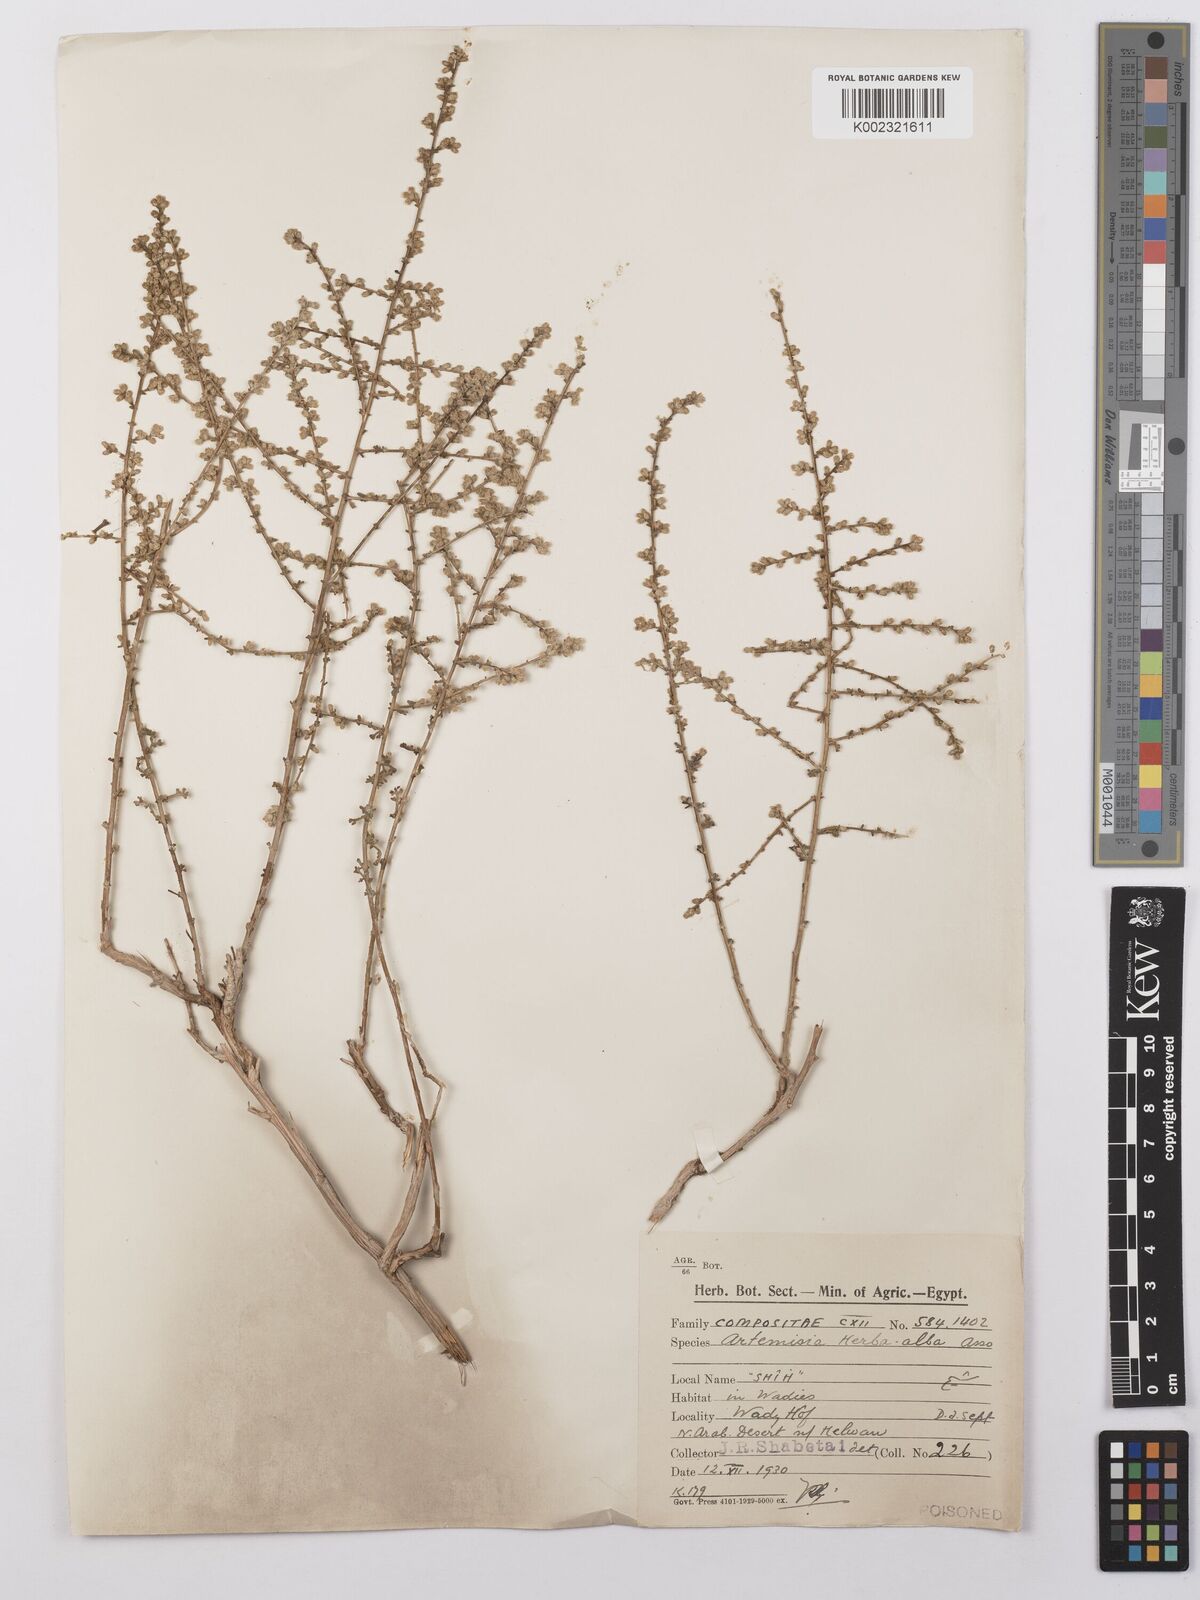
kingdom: Plantae
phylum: Tracheophyta
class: Magnoliopsida
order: Asterales
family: Asteraceae
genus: Artemisia
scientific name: Artemisia herba-alba
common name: White wormwood
